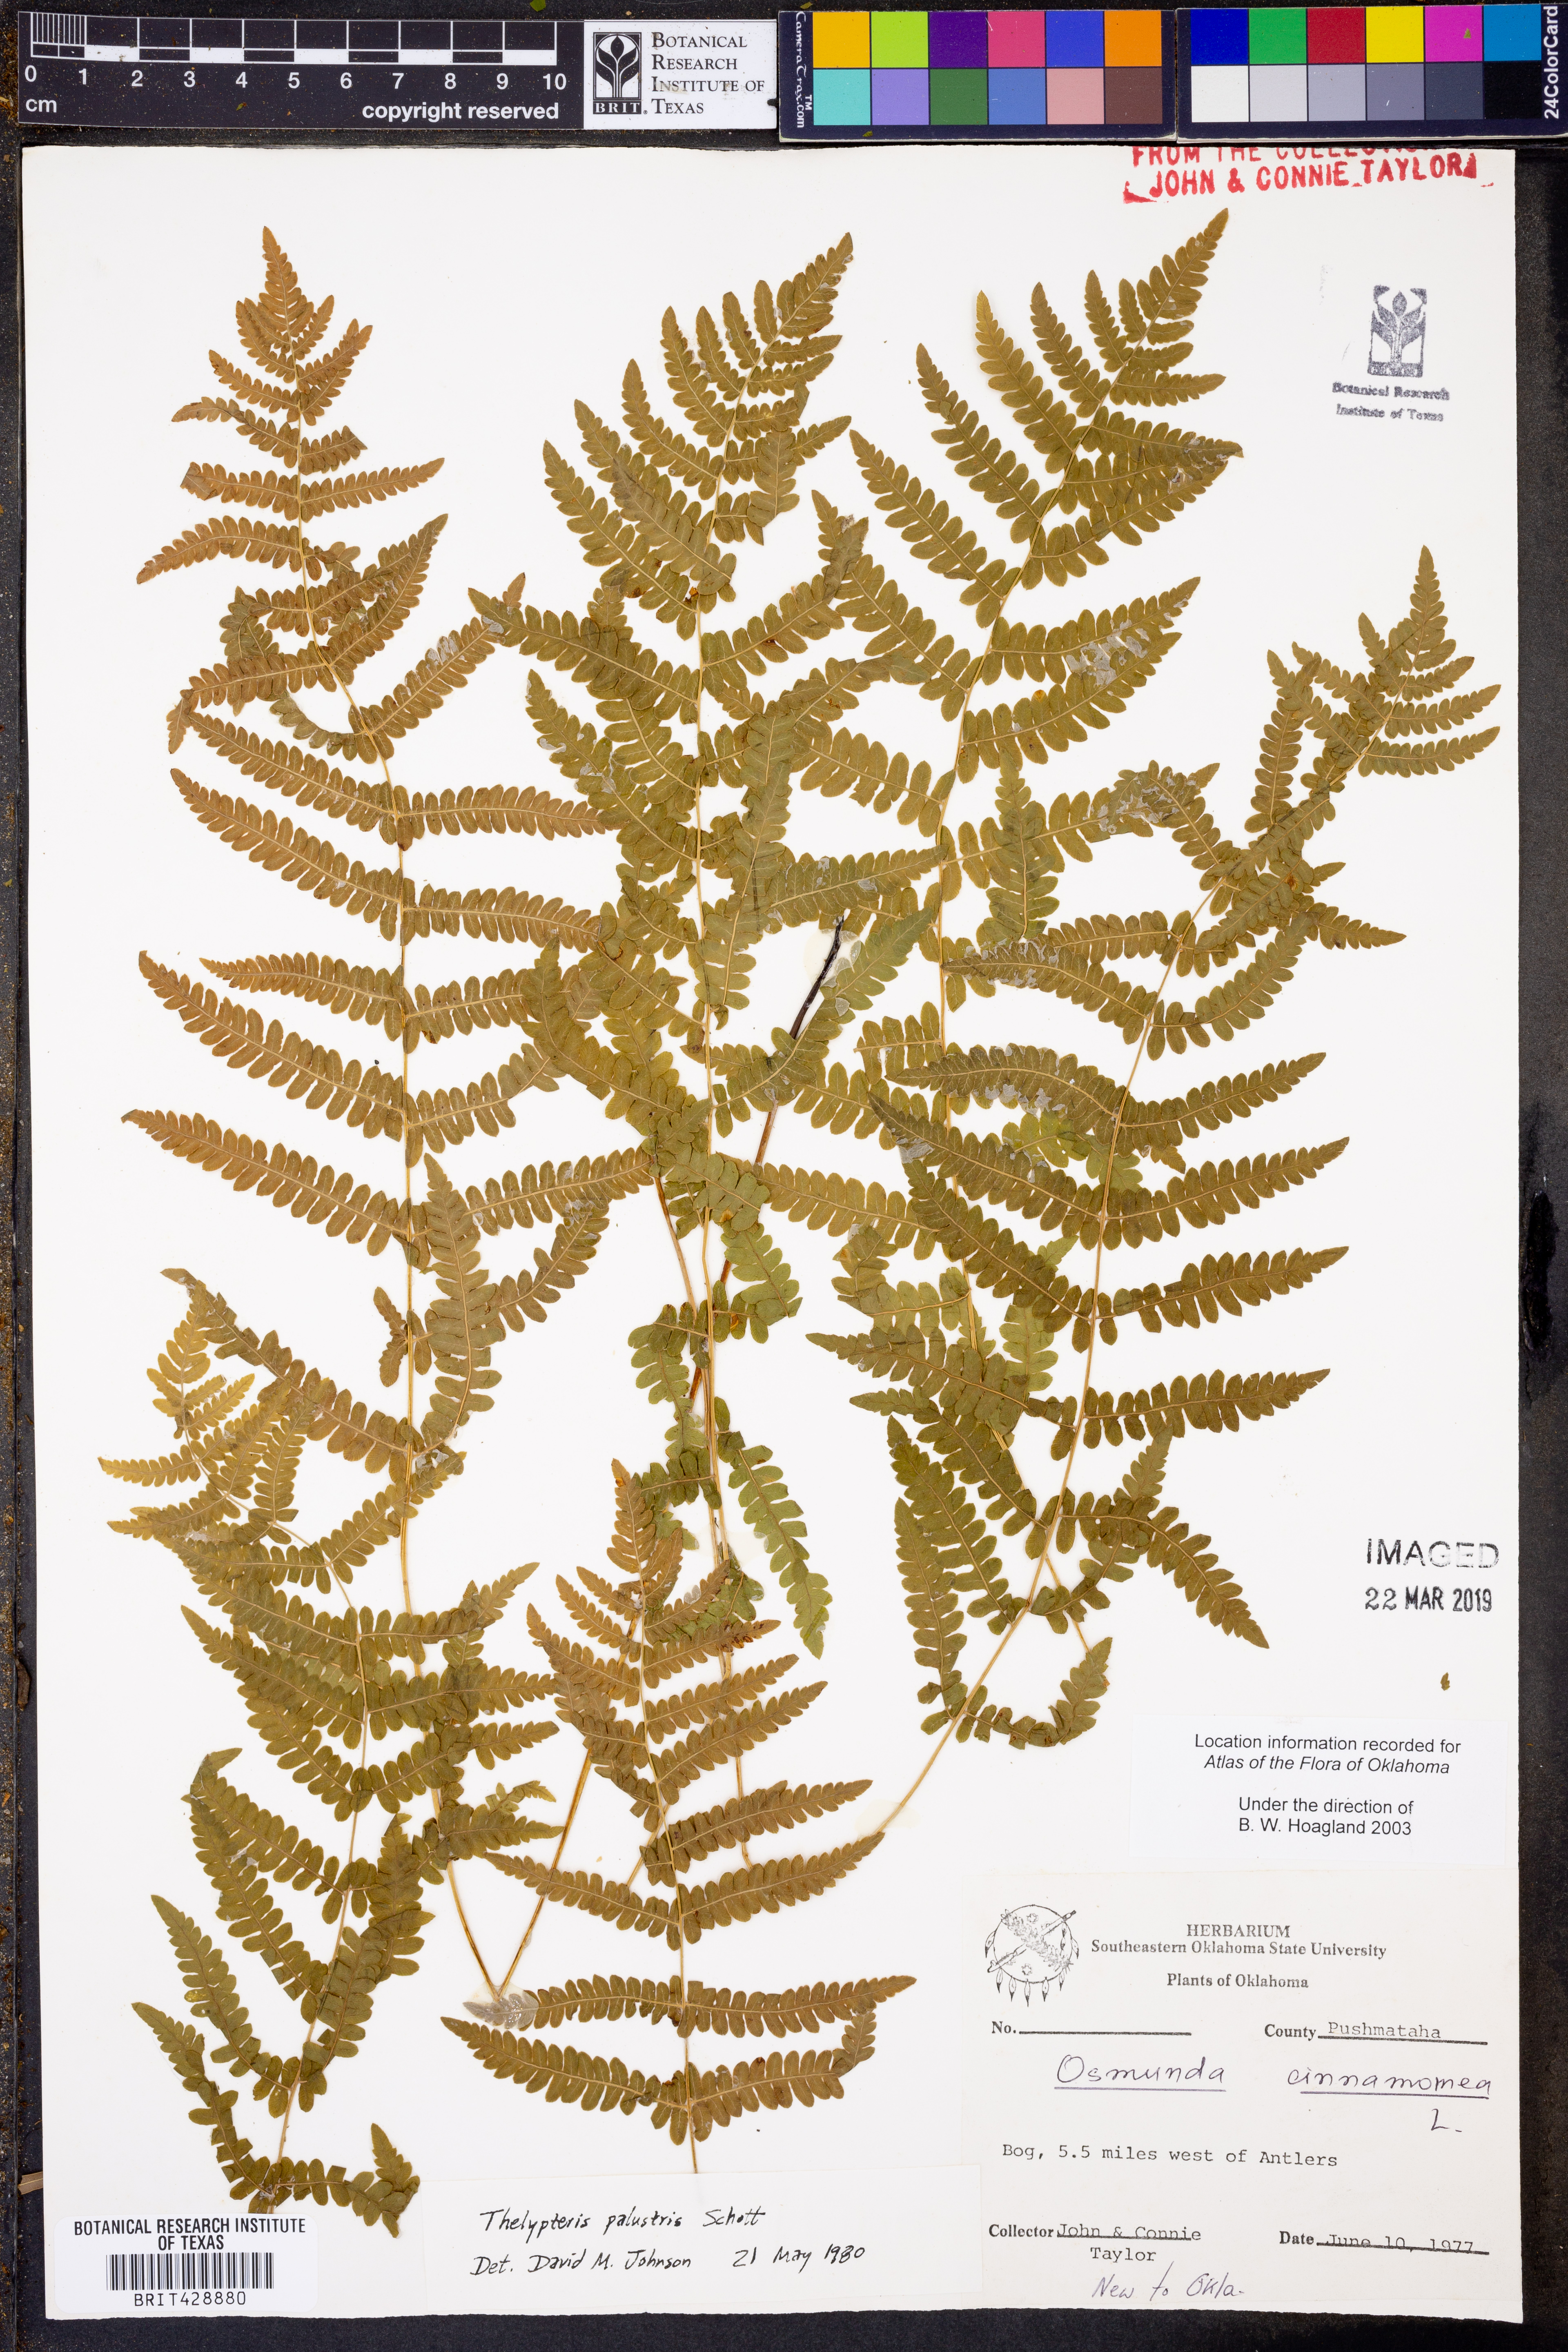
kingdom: Plantae
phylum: Tracheophyta
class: Polypodiopsida
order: Polypodiales
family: Thelypteridaceae
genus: Thelypteris
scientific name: Thelypteris palustris
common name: Marsh fern
